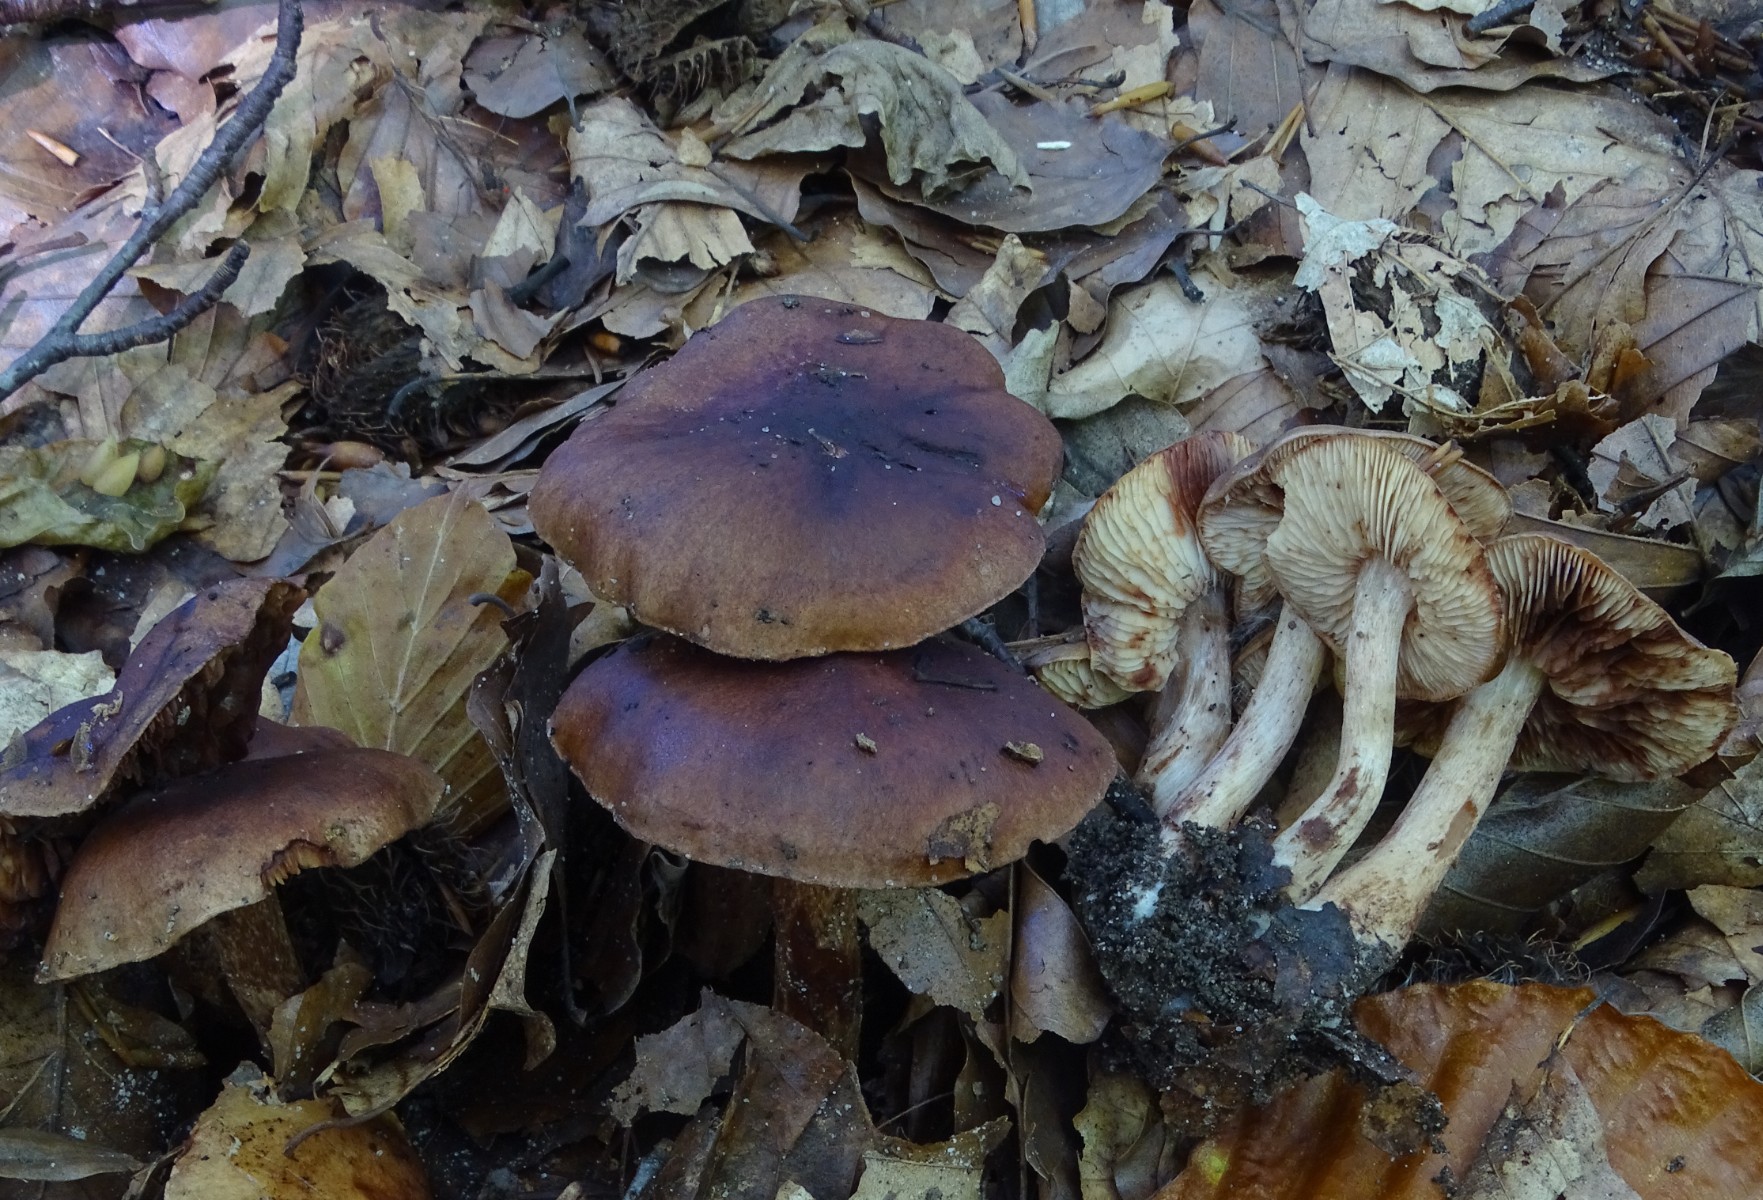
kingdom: Fungi
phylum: Basidiomycota
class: Agaricomycetes
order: Agaricales
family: Tricholomataceae
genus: Tricholoma
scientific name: Tricholoma ustale
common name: sveden ridderhat
